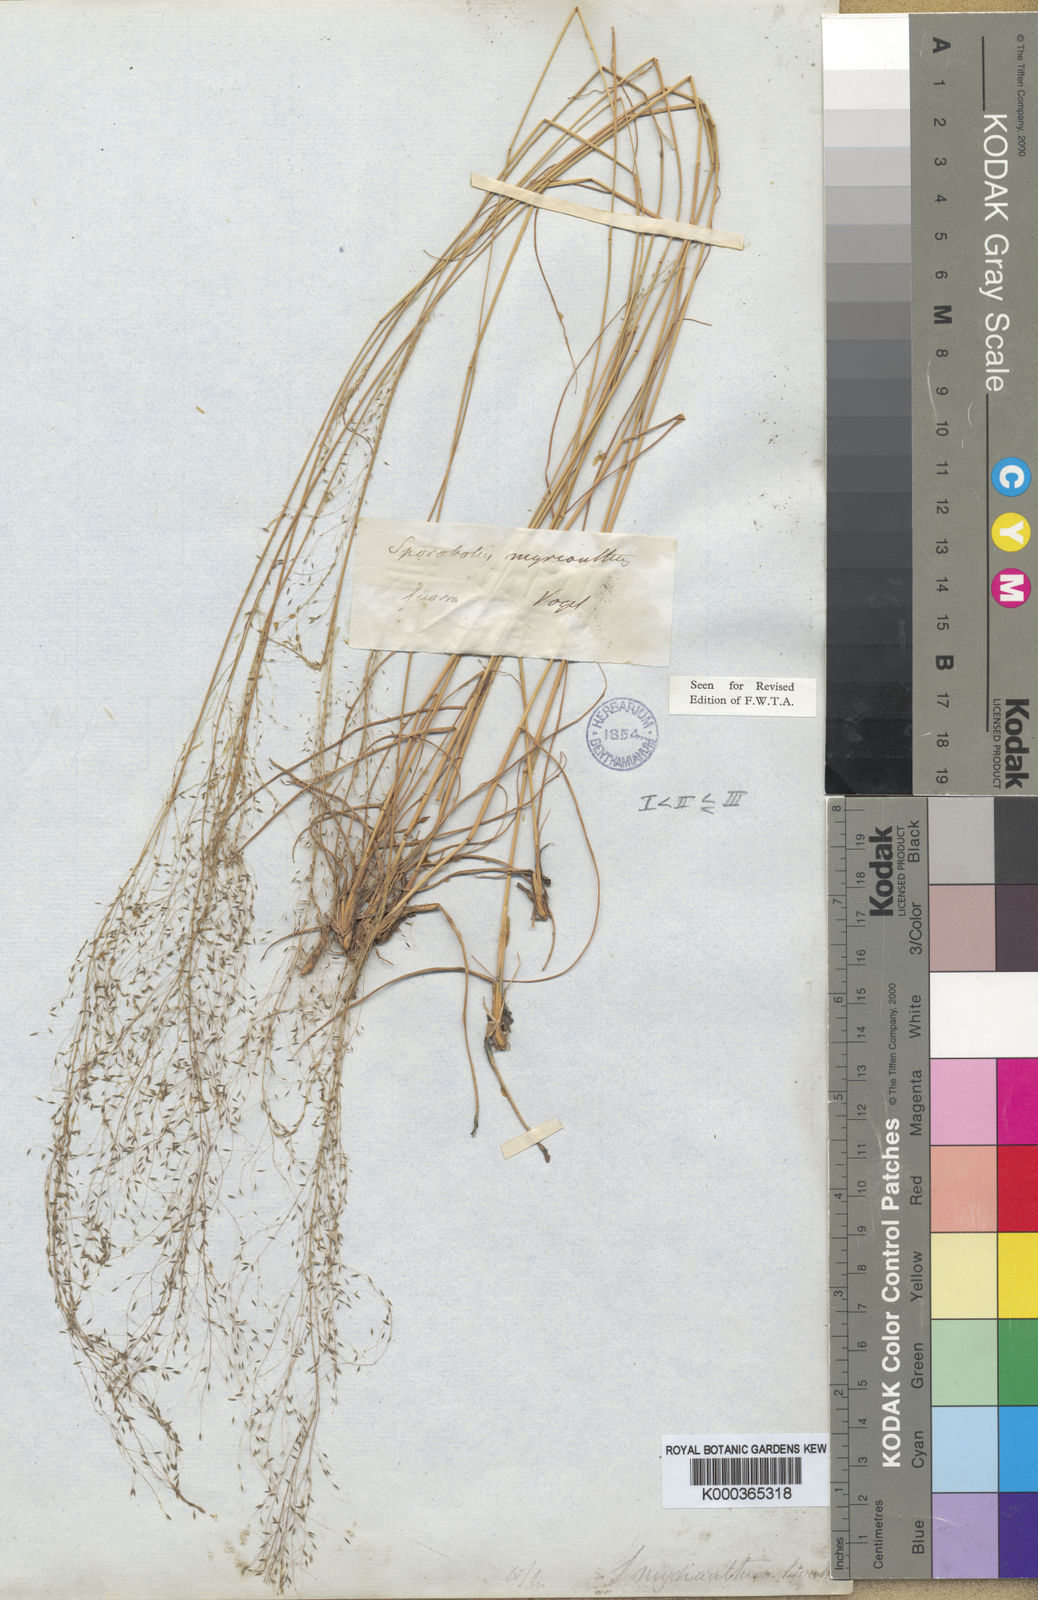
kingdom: Plantae
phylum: Tracheophyta
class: Liliopsida
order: Poales
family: Poaceae
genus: Sporobolus
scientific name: Sporobolus myrianthus
